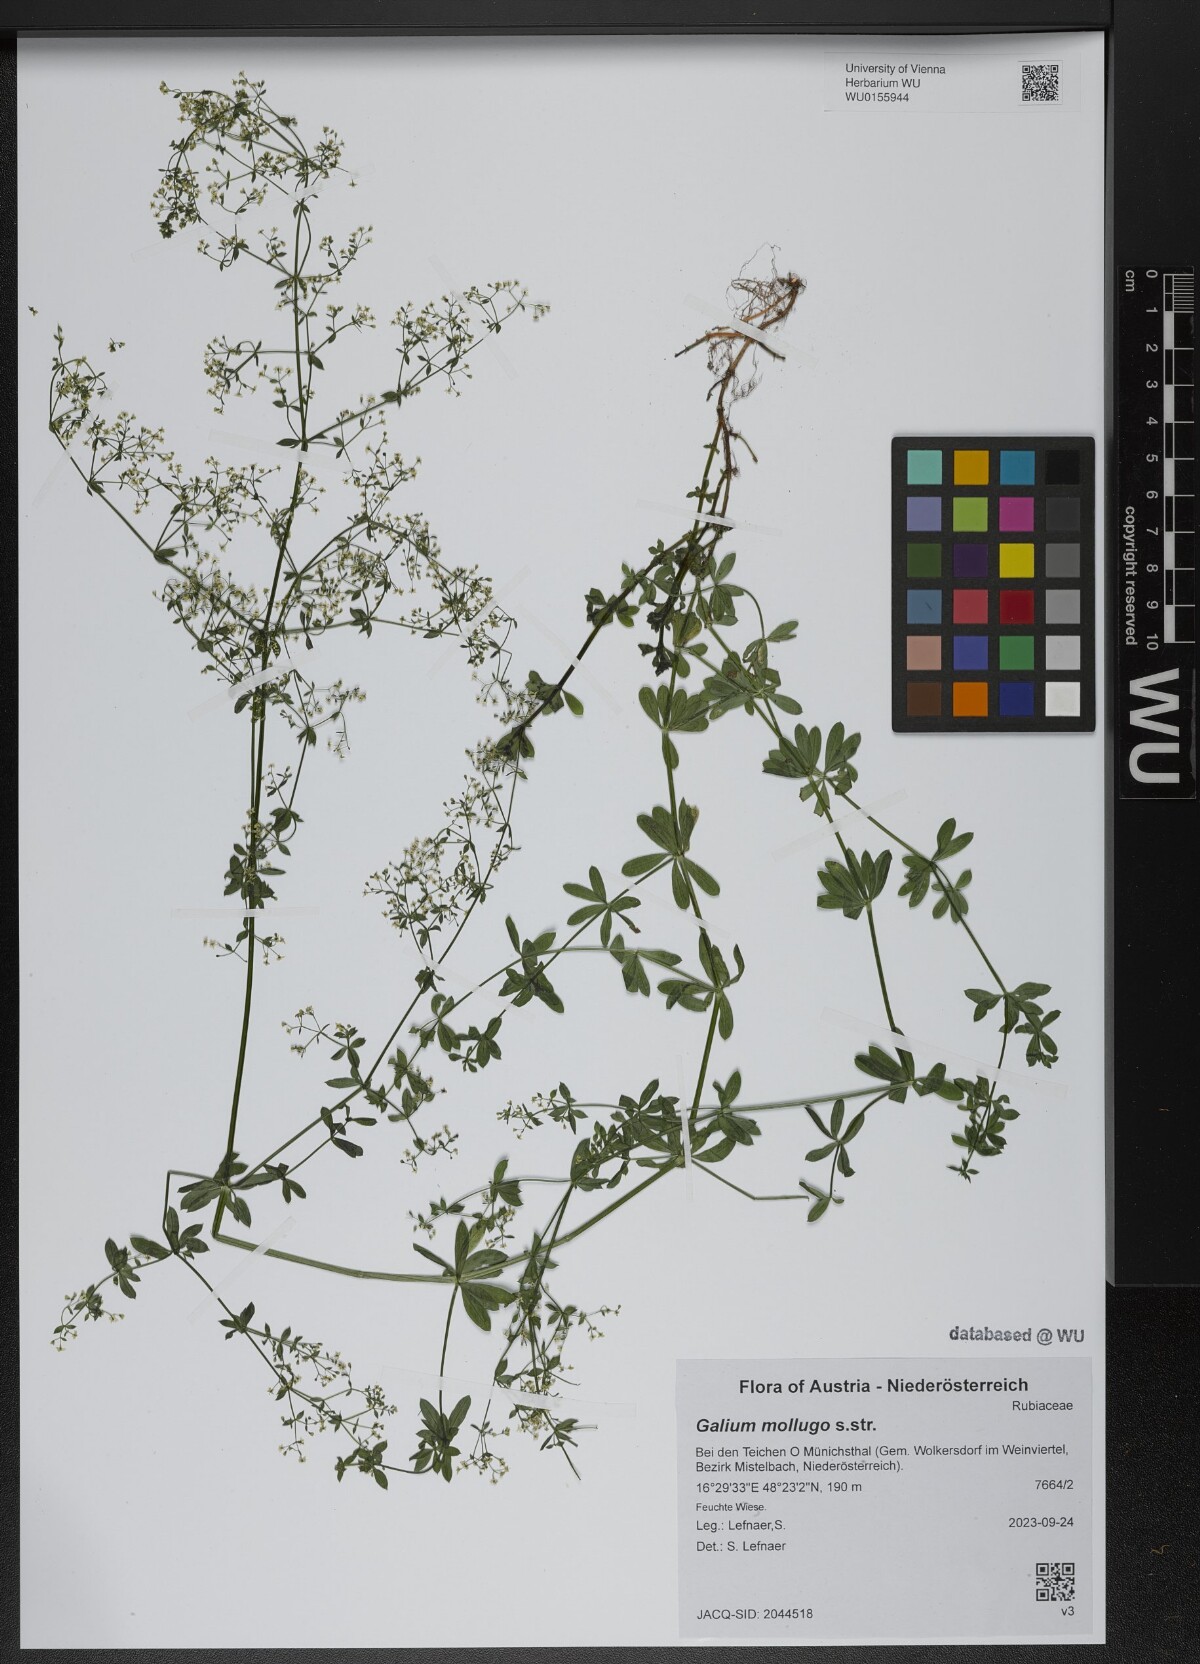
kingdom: Plantae
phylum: Tracheophyta
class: Magnoliopsida
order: Gentianales
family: Rubiaceae
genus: Galium
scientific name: Galium mollugo
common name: Hedge bedstraw
